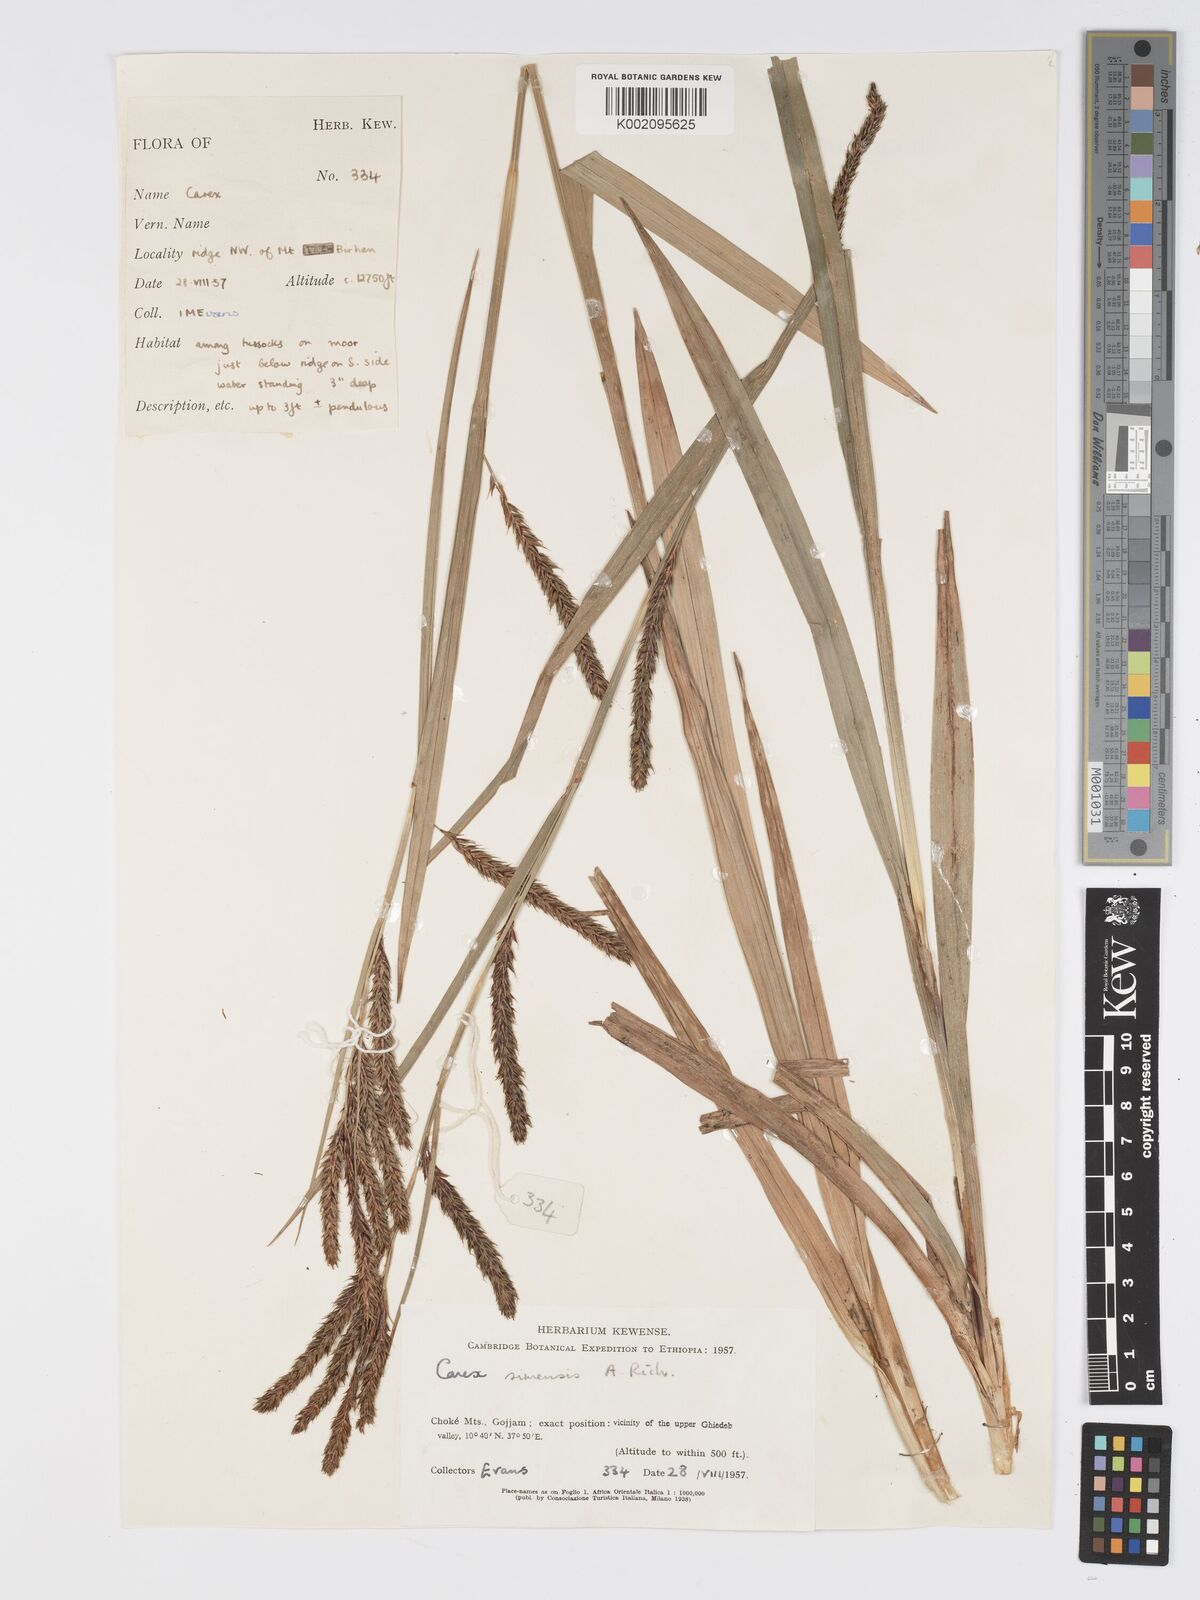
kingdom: Plantae
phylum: Tracheophyta
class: Liliopsida
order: Poales
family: Cyperaceae
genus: Carex
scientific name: Carex simensis
